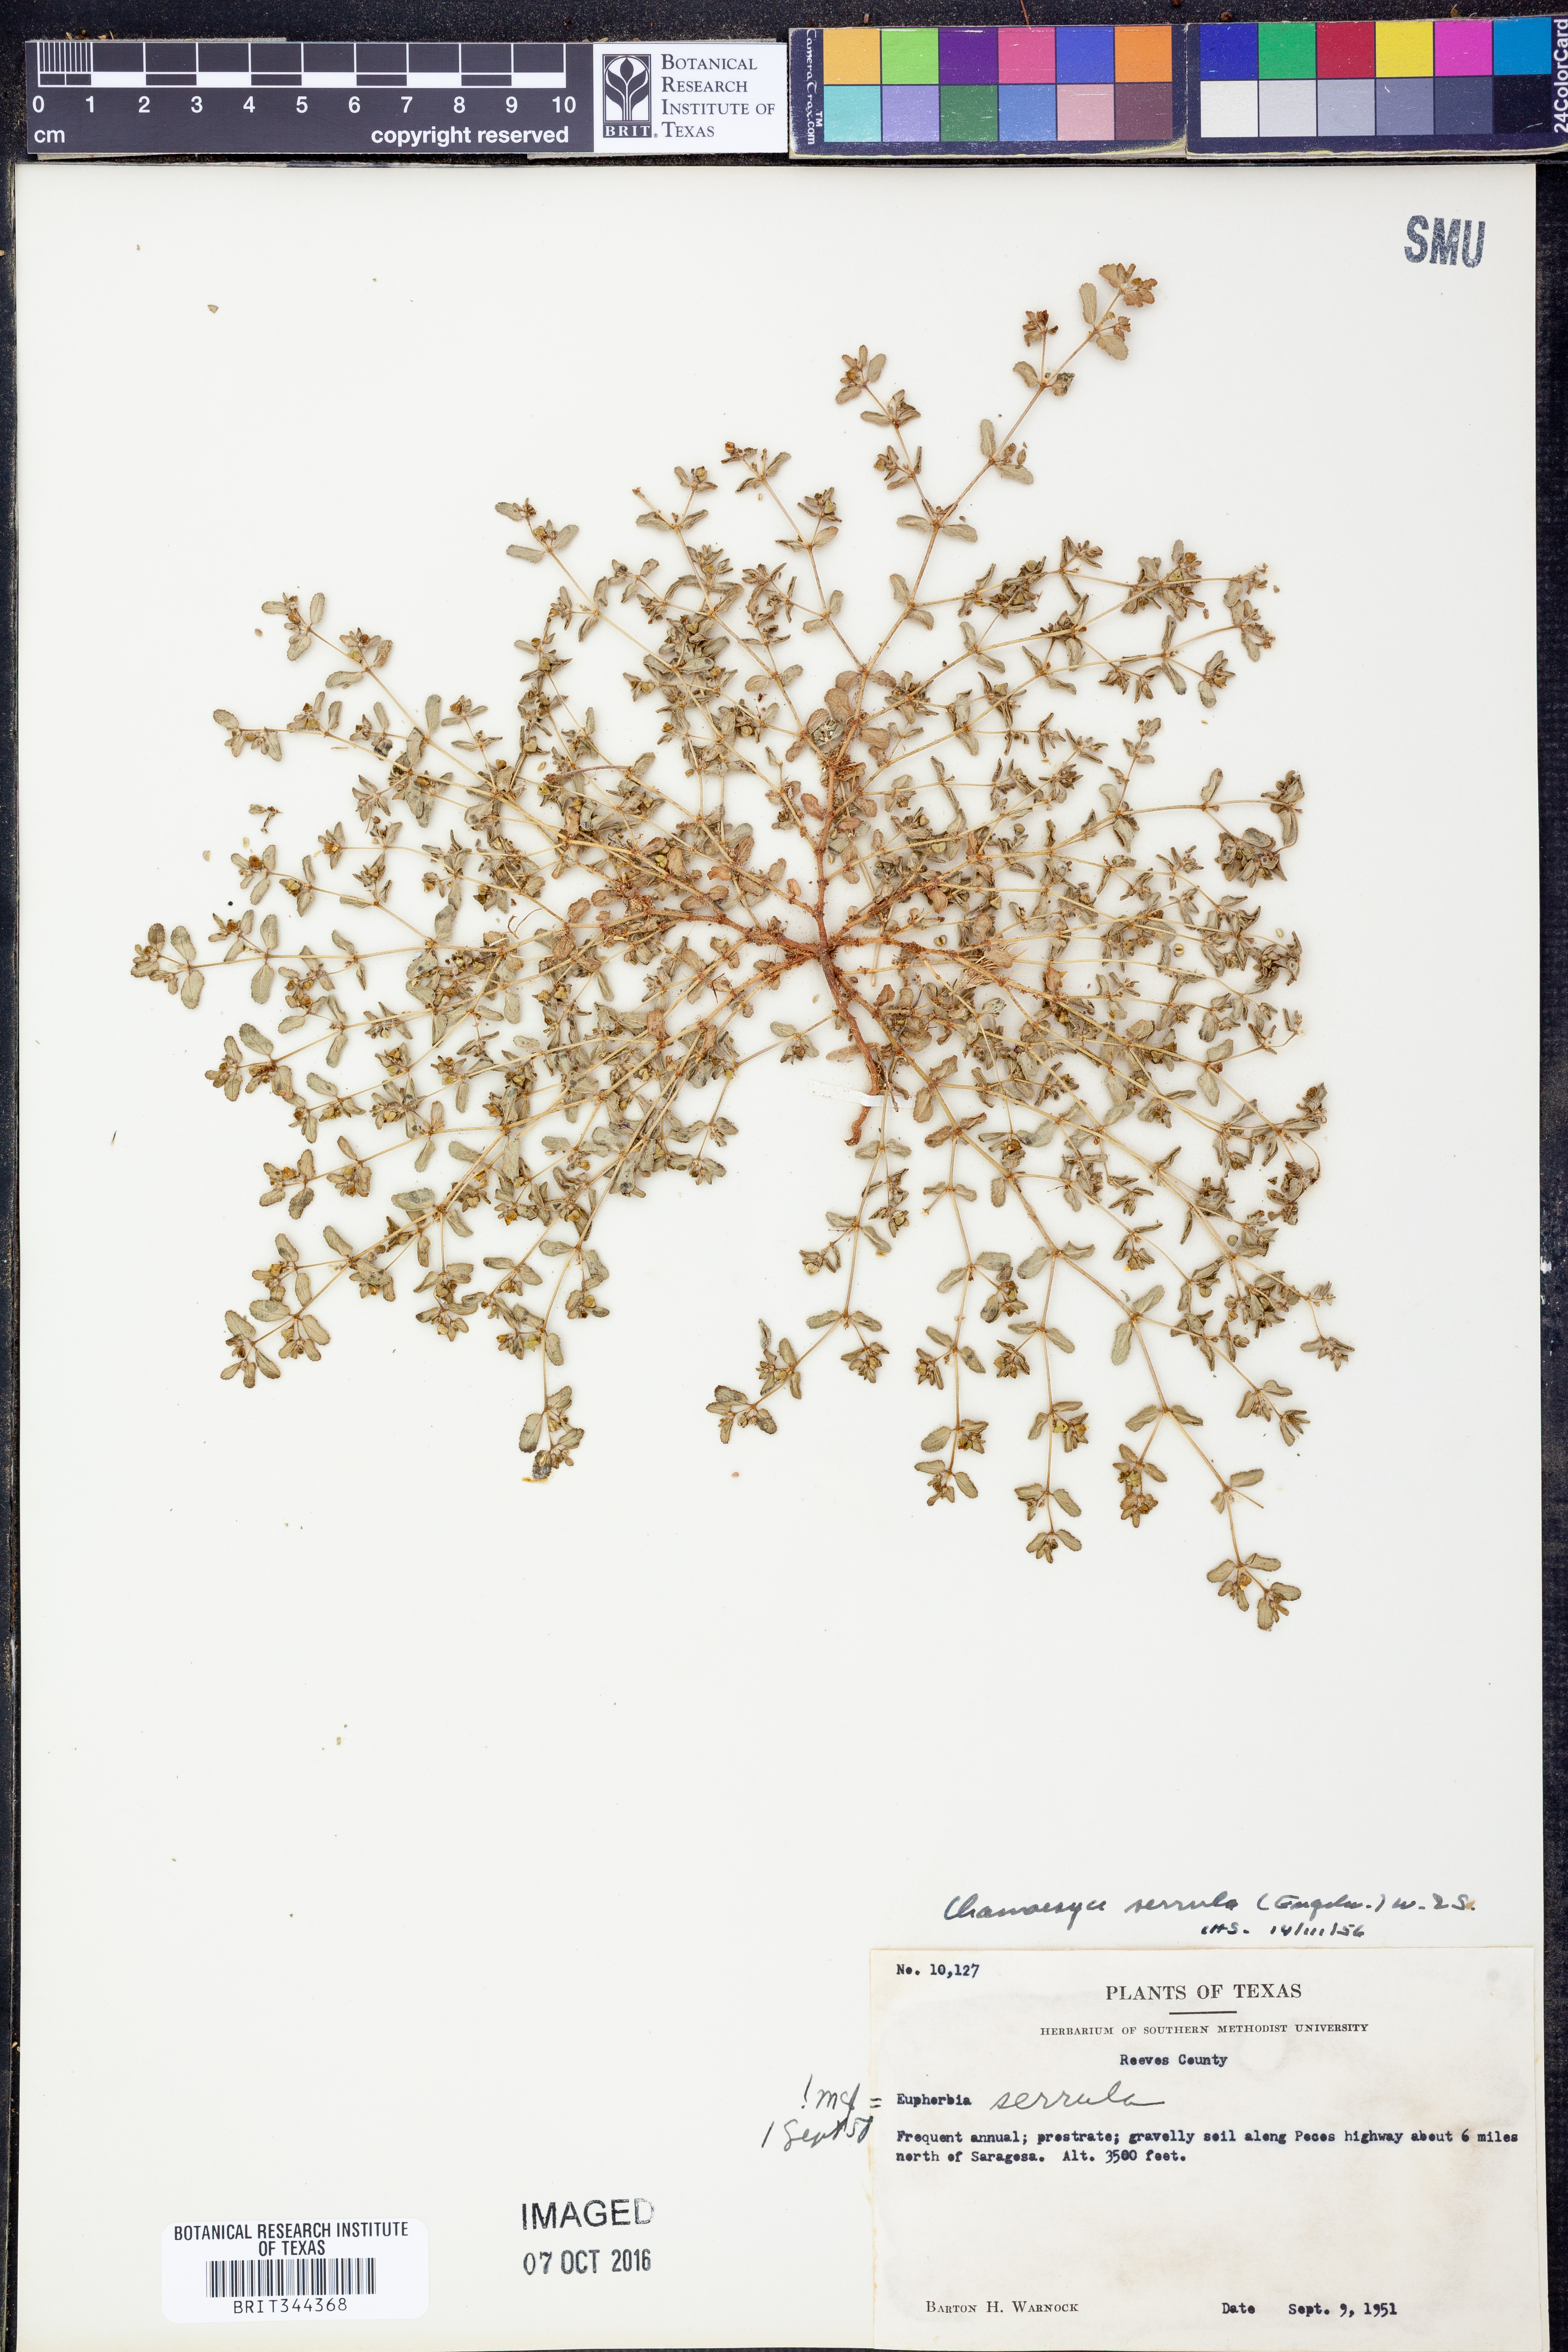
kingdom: Plantae
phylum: Tracheophyta
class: Magnoliopsida
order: Malpighiales
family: Euphorbiaceae
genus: Euphorbia
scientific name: Euphorbia serrula
